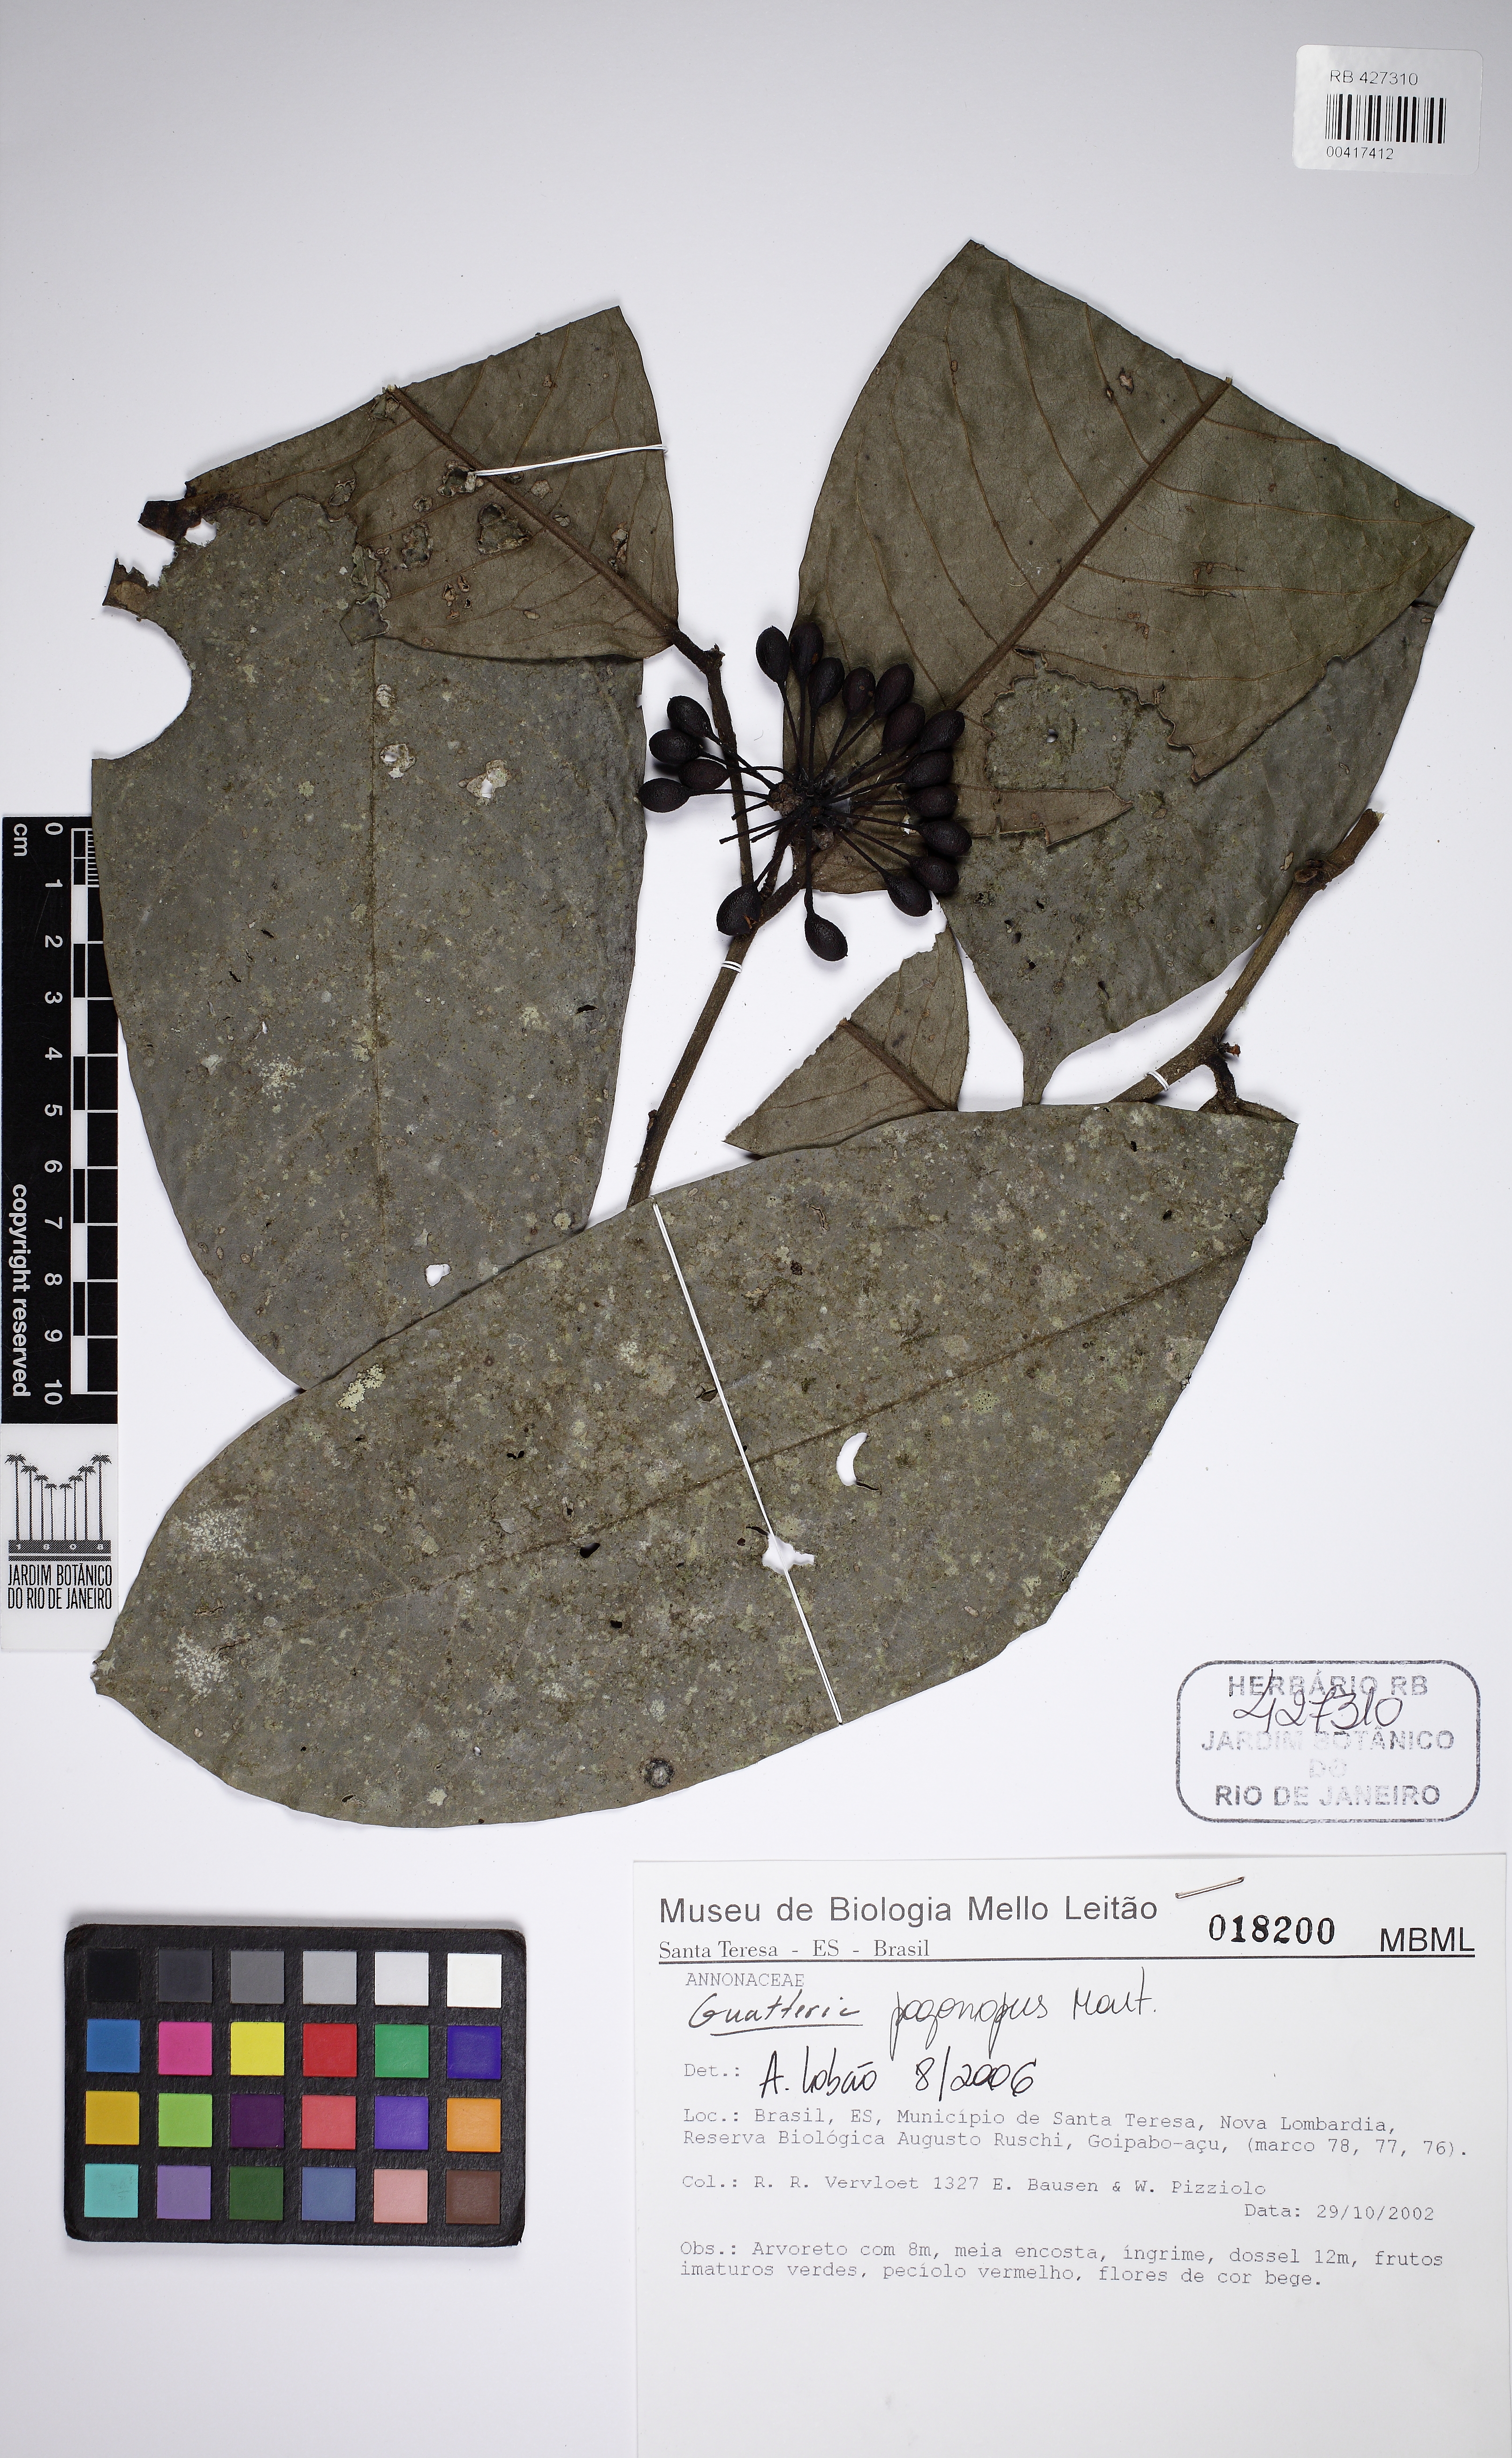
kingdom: Plantae
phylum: Tracheophyta
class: Magnoliopsida
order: Magnoliales
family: Annonaceae
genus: Guatteria
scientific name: Guatteria pogonopus
